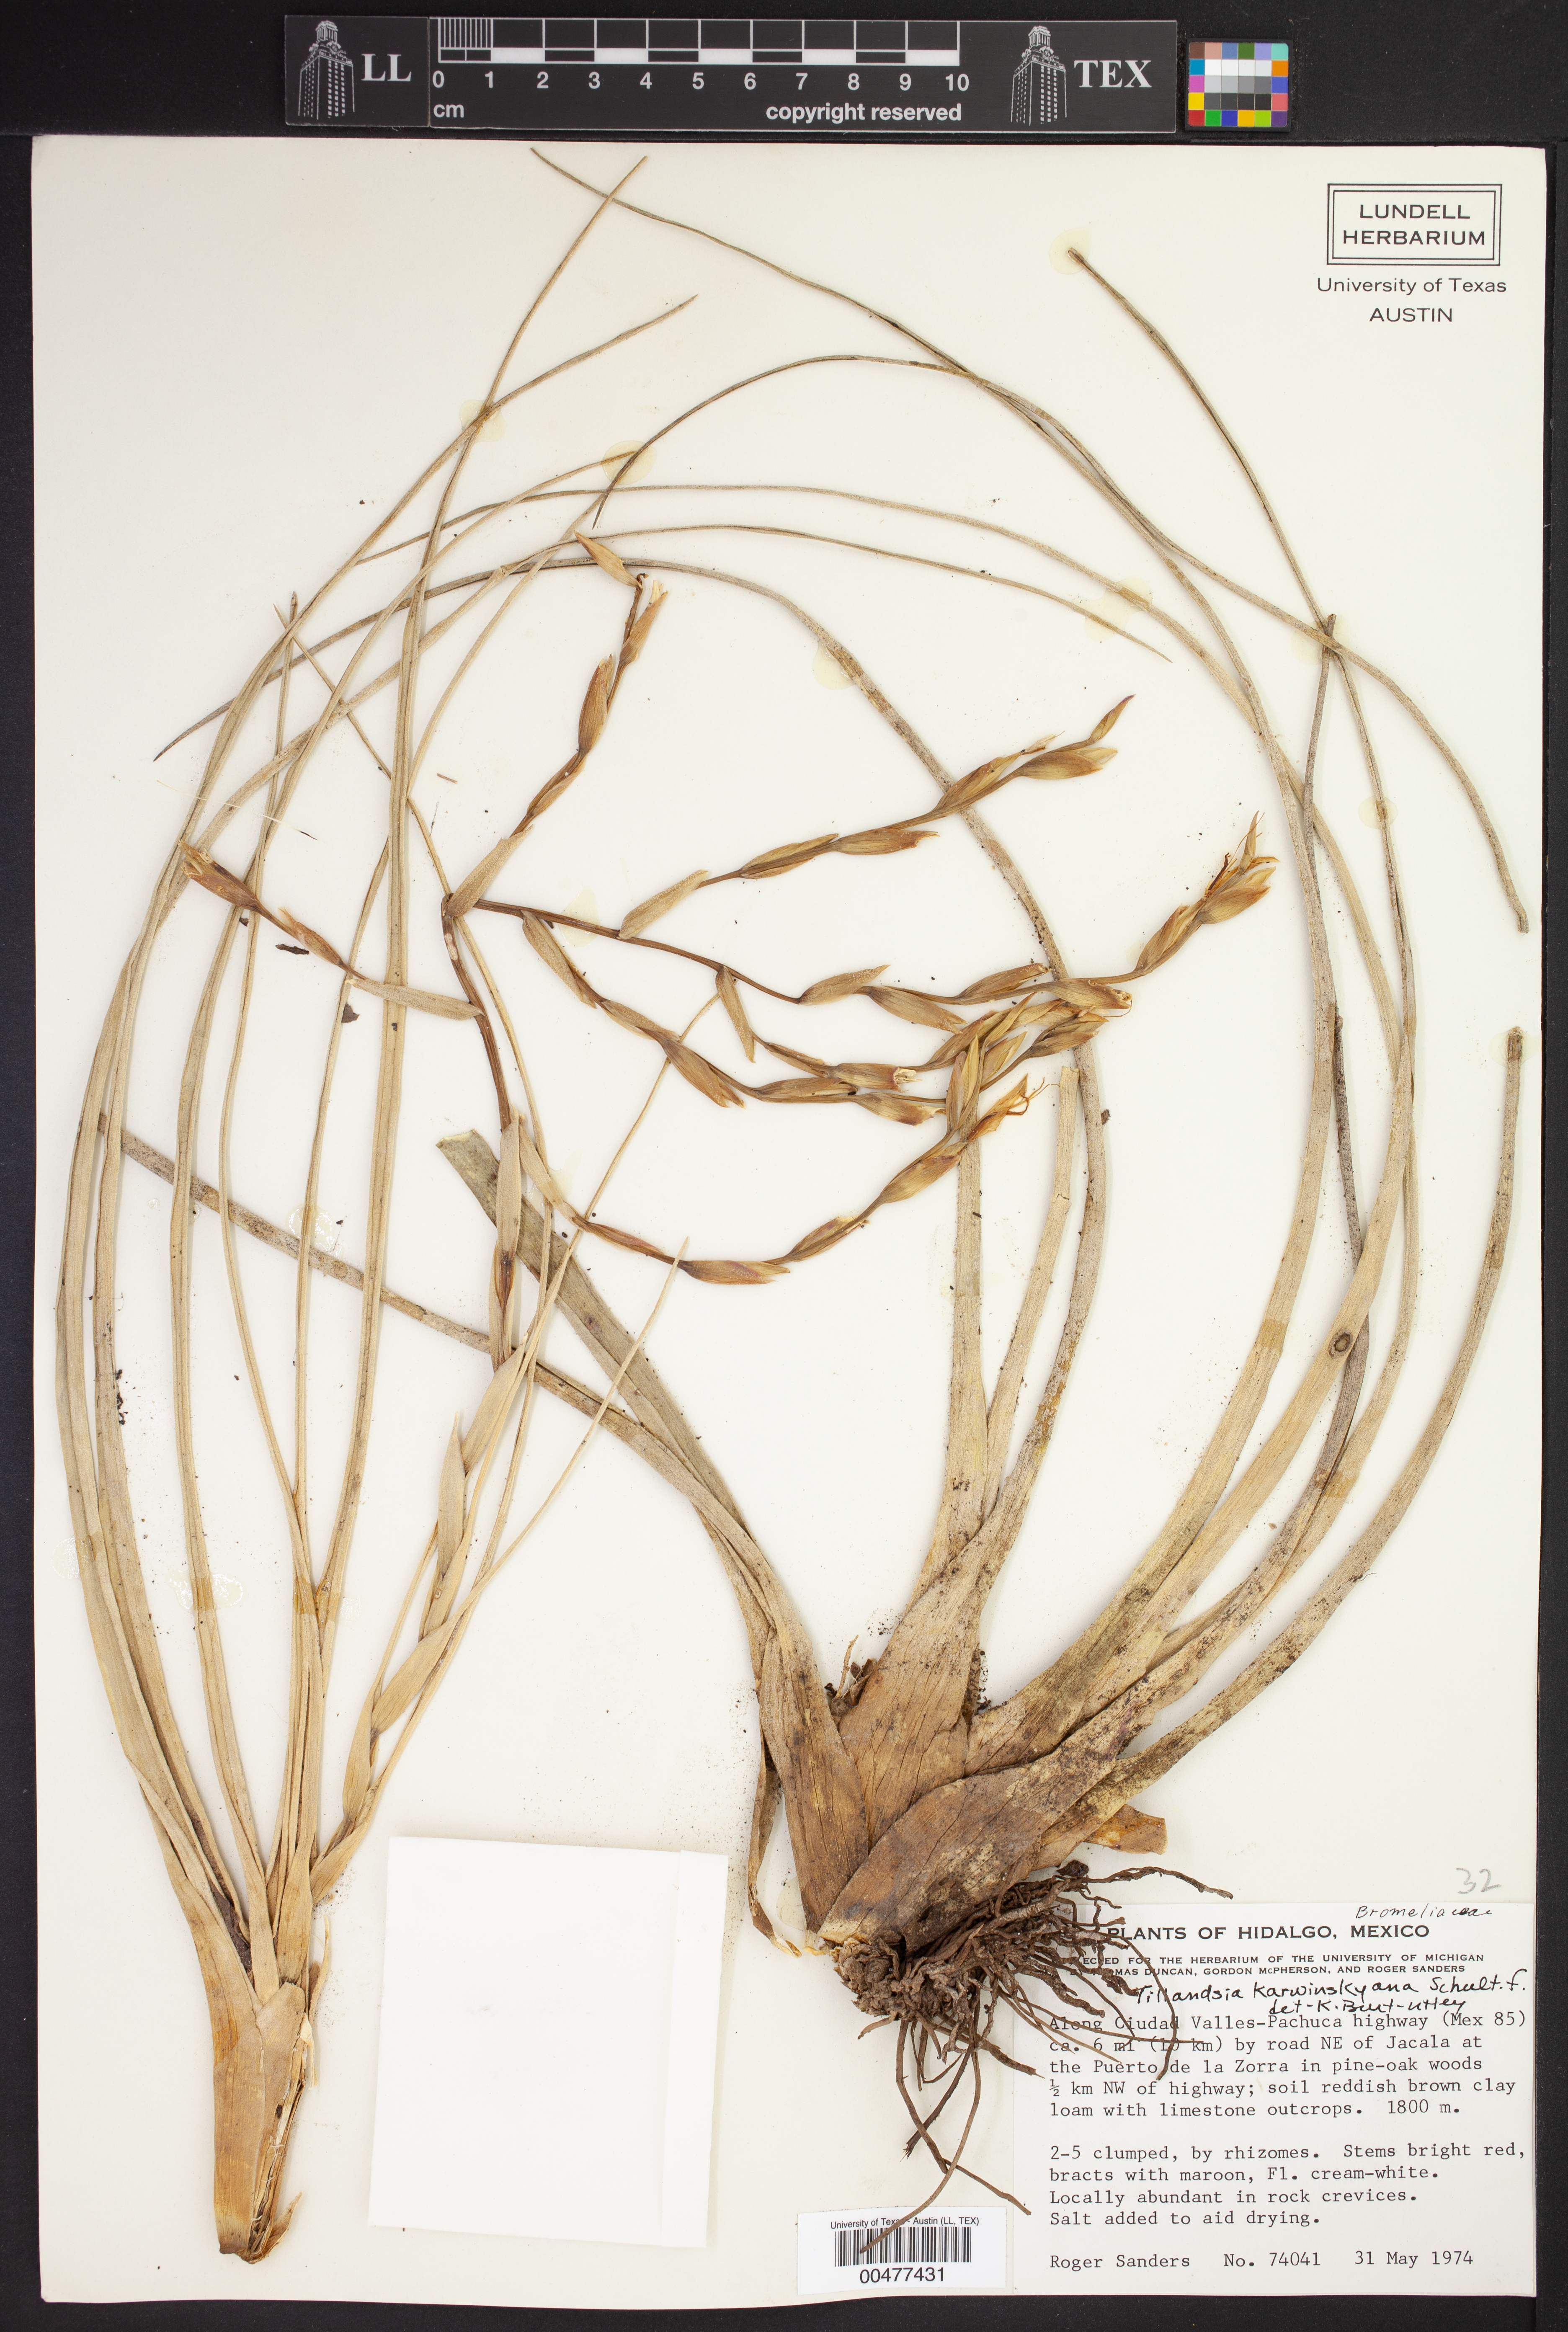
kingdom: Plantae
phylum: Tracheophyta
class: Liliopsida
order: Poales
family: Bromeliaceae
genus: Tillandsia
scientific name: Tillandsia karwinskyana
